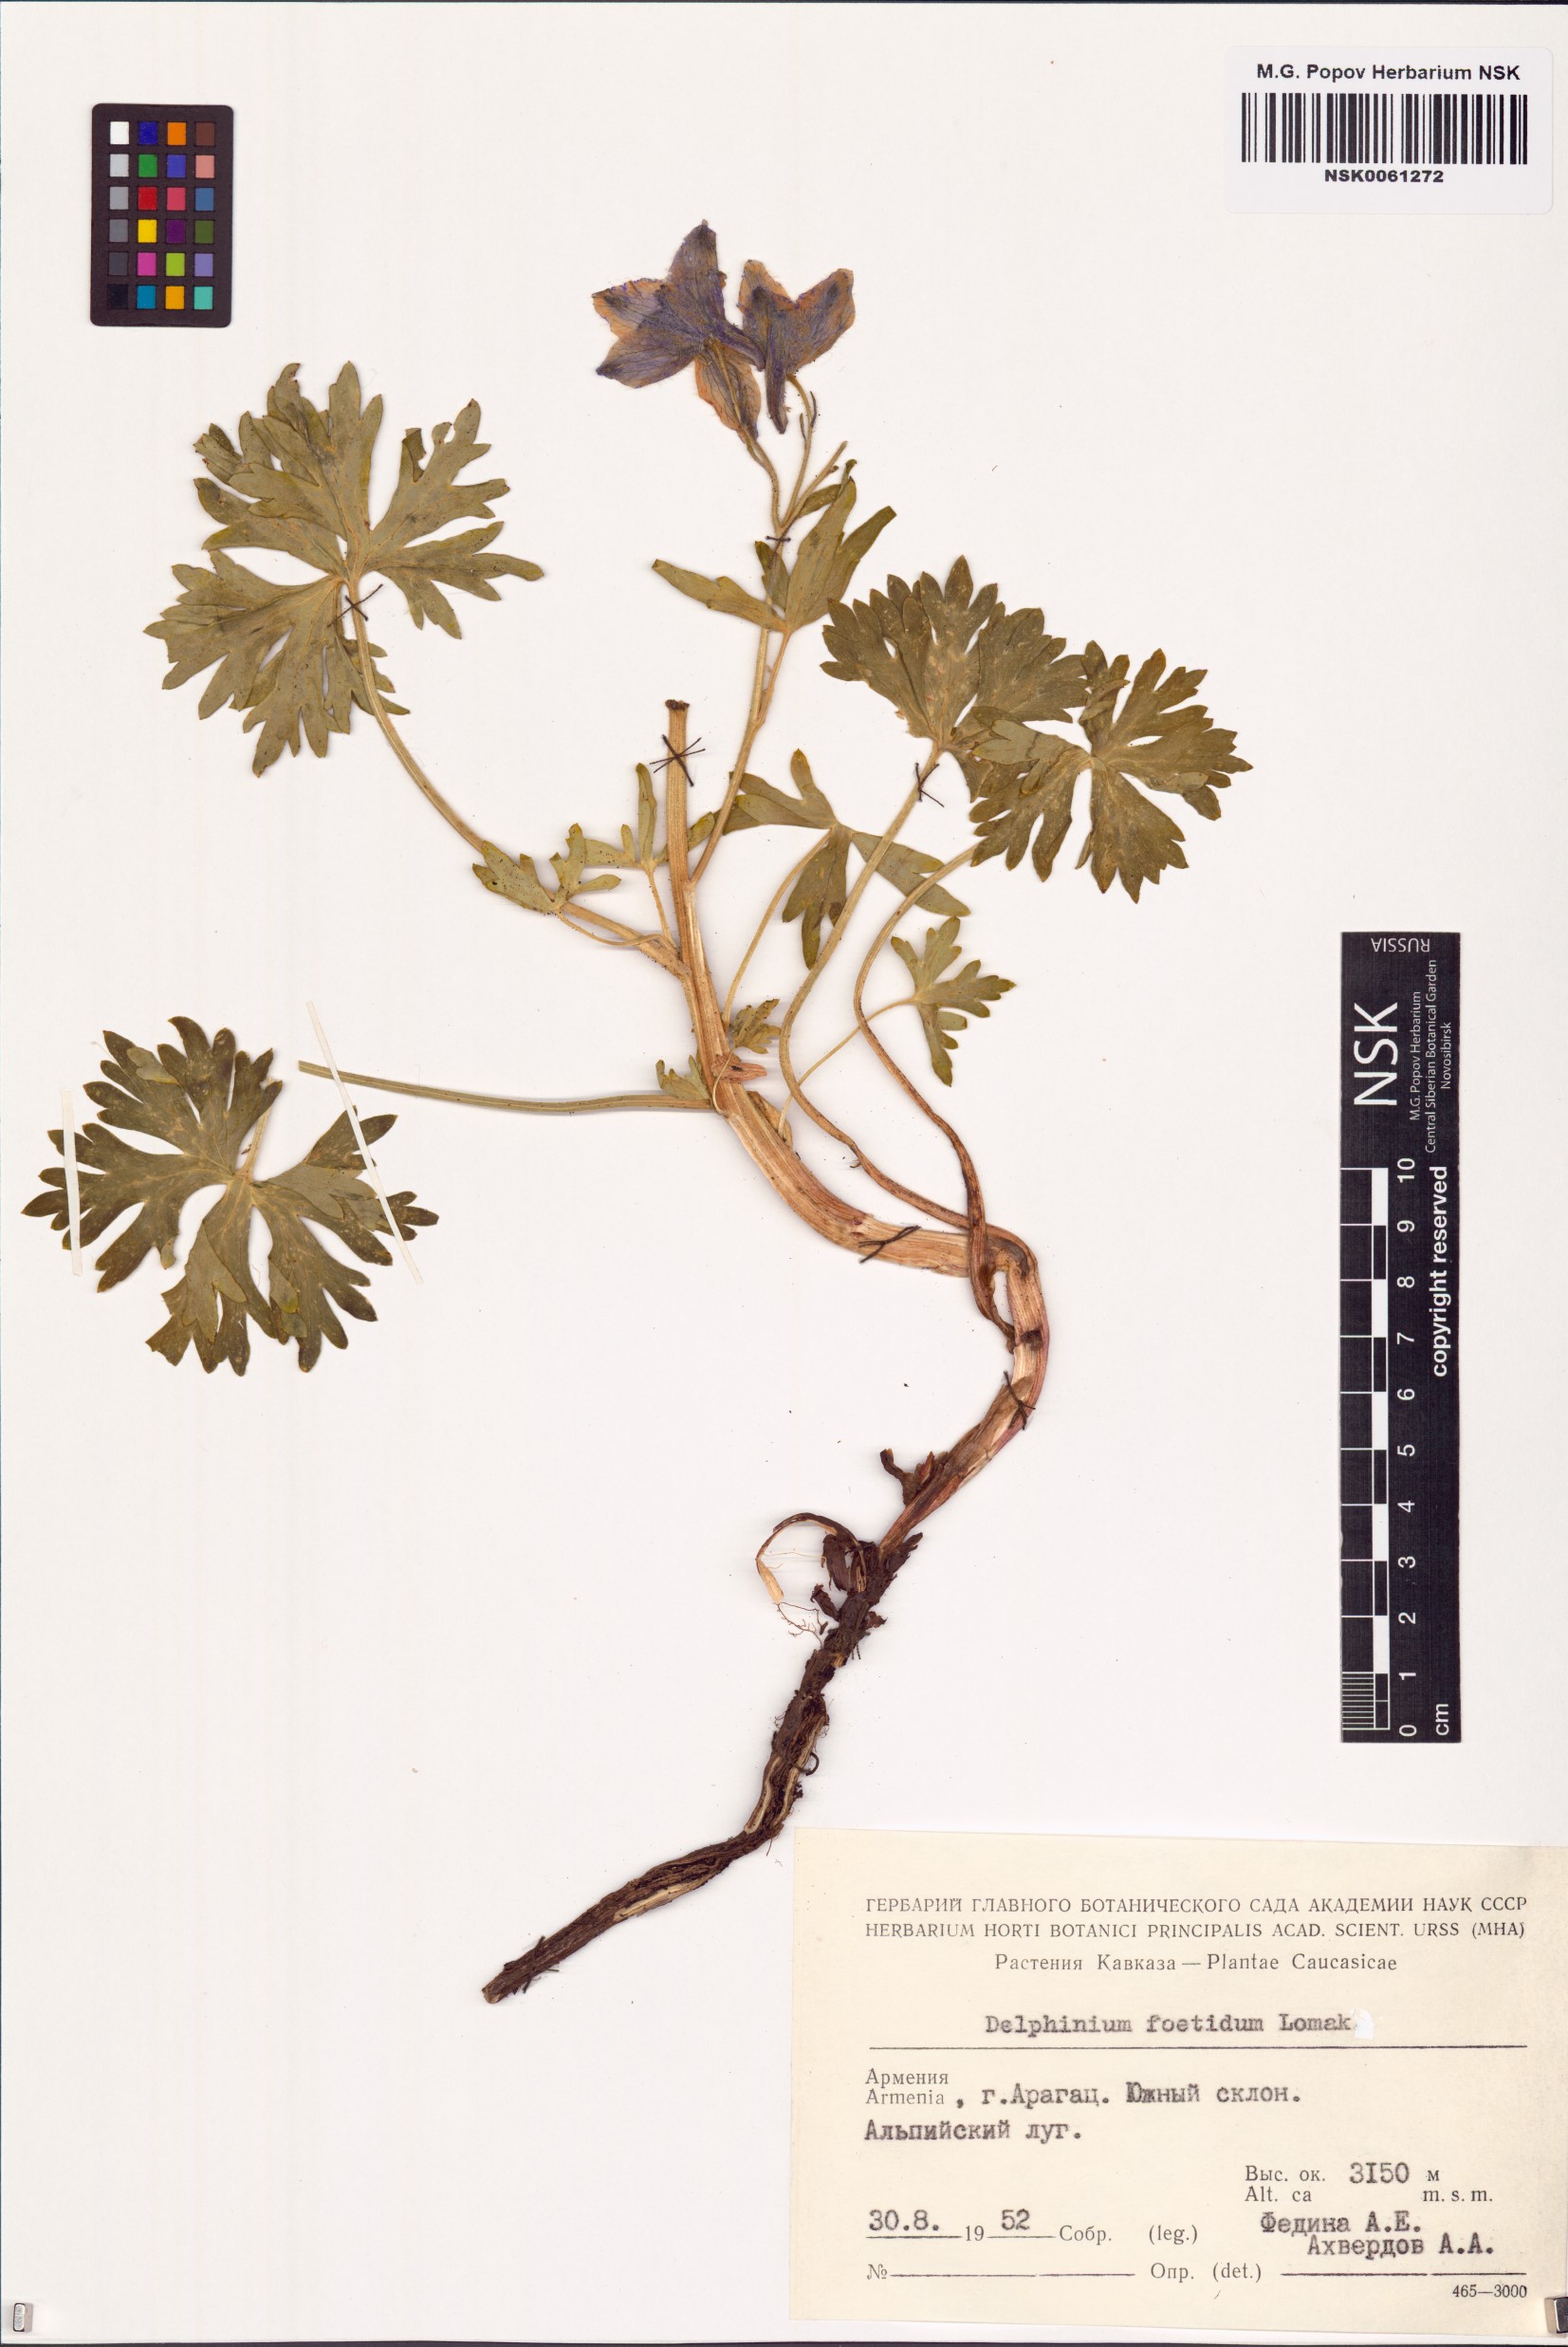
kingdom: Plantae
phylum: Tracheophyta
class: Magnoliopsida
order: Ranunculales
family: Ranunculaceae
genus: Delphinium
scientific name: Delphinium foetidum
